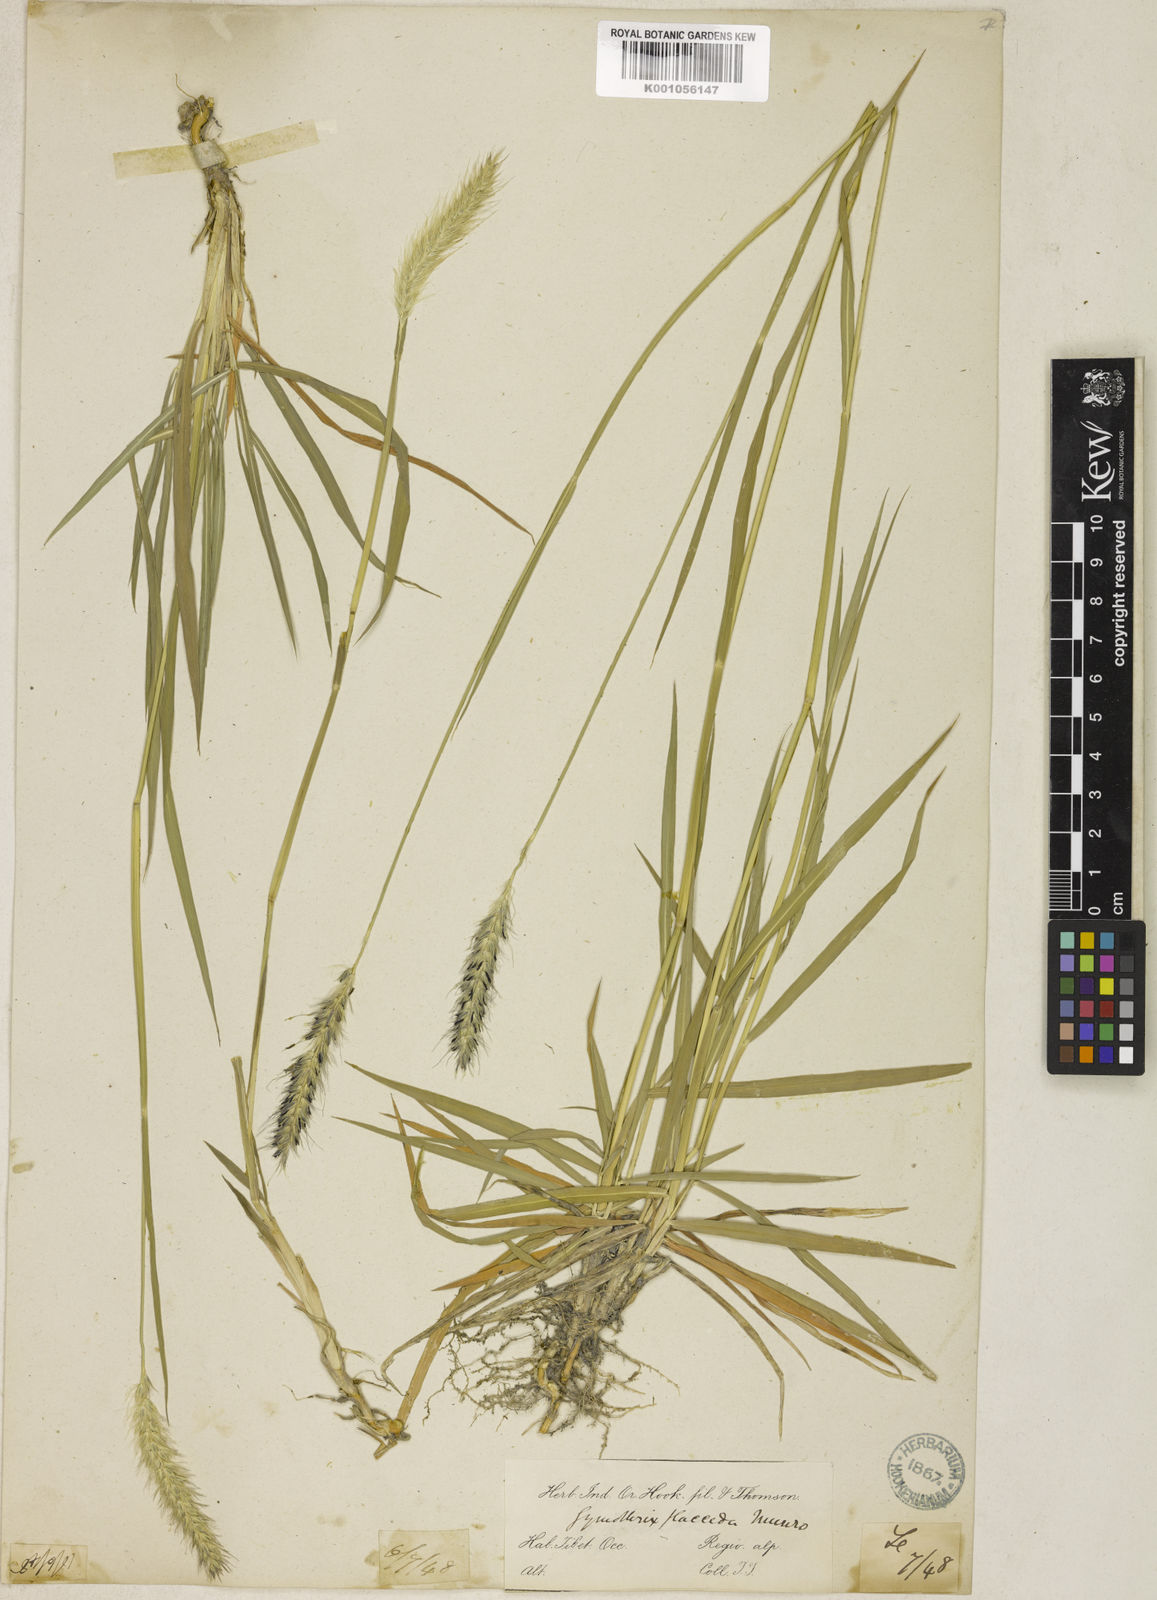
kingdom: Plantae
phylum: Tracheophyta
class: Liliopsida
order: Poales
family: Poaceae
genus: Cenchrus
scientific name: Cenchrus flaccidus
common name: Flaccid grass
